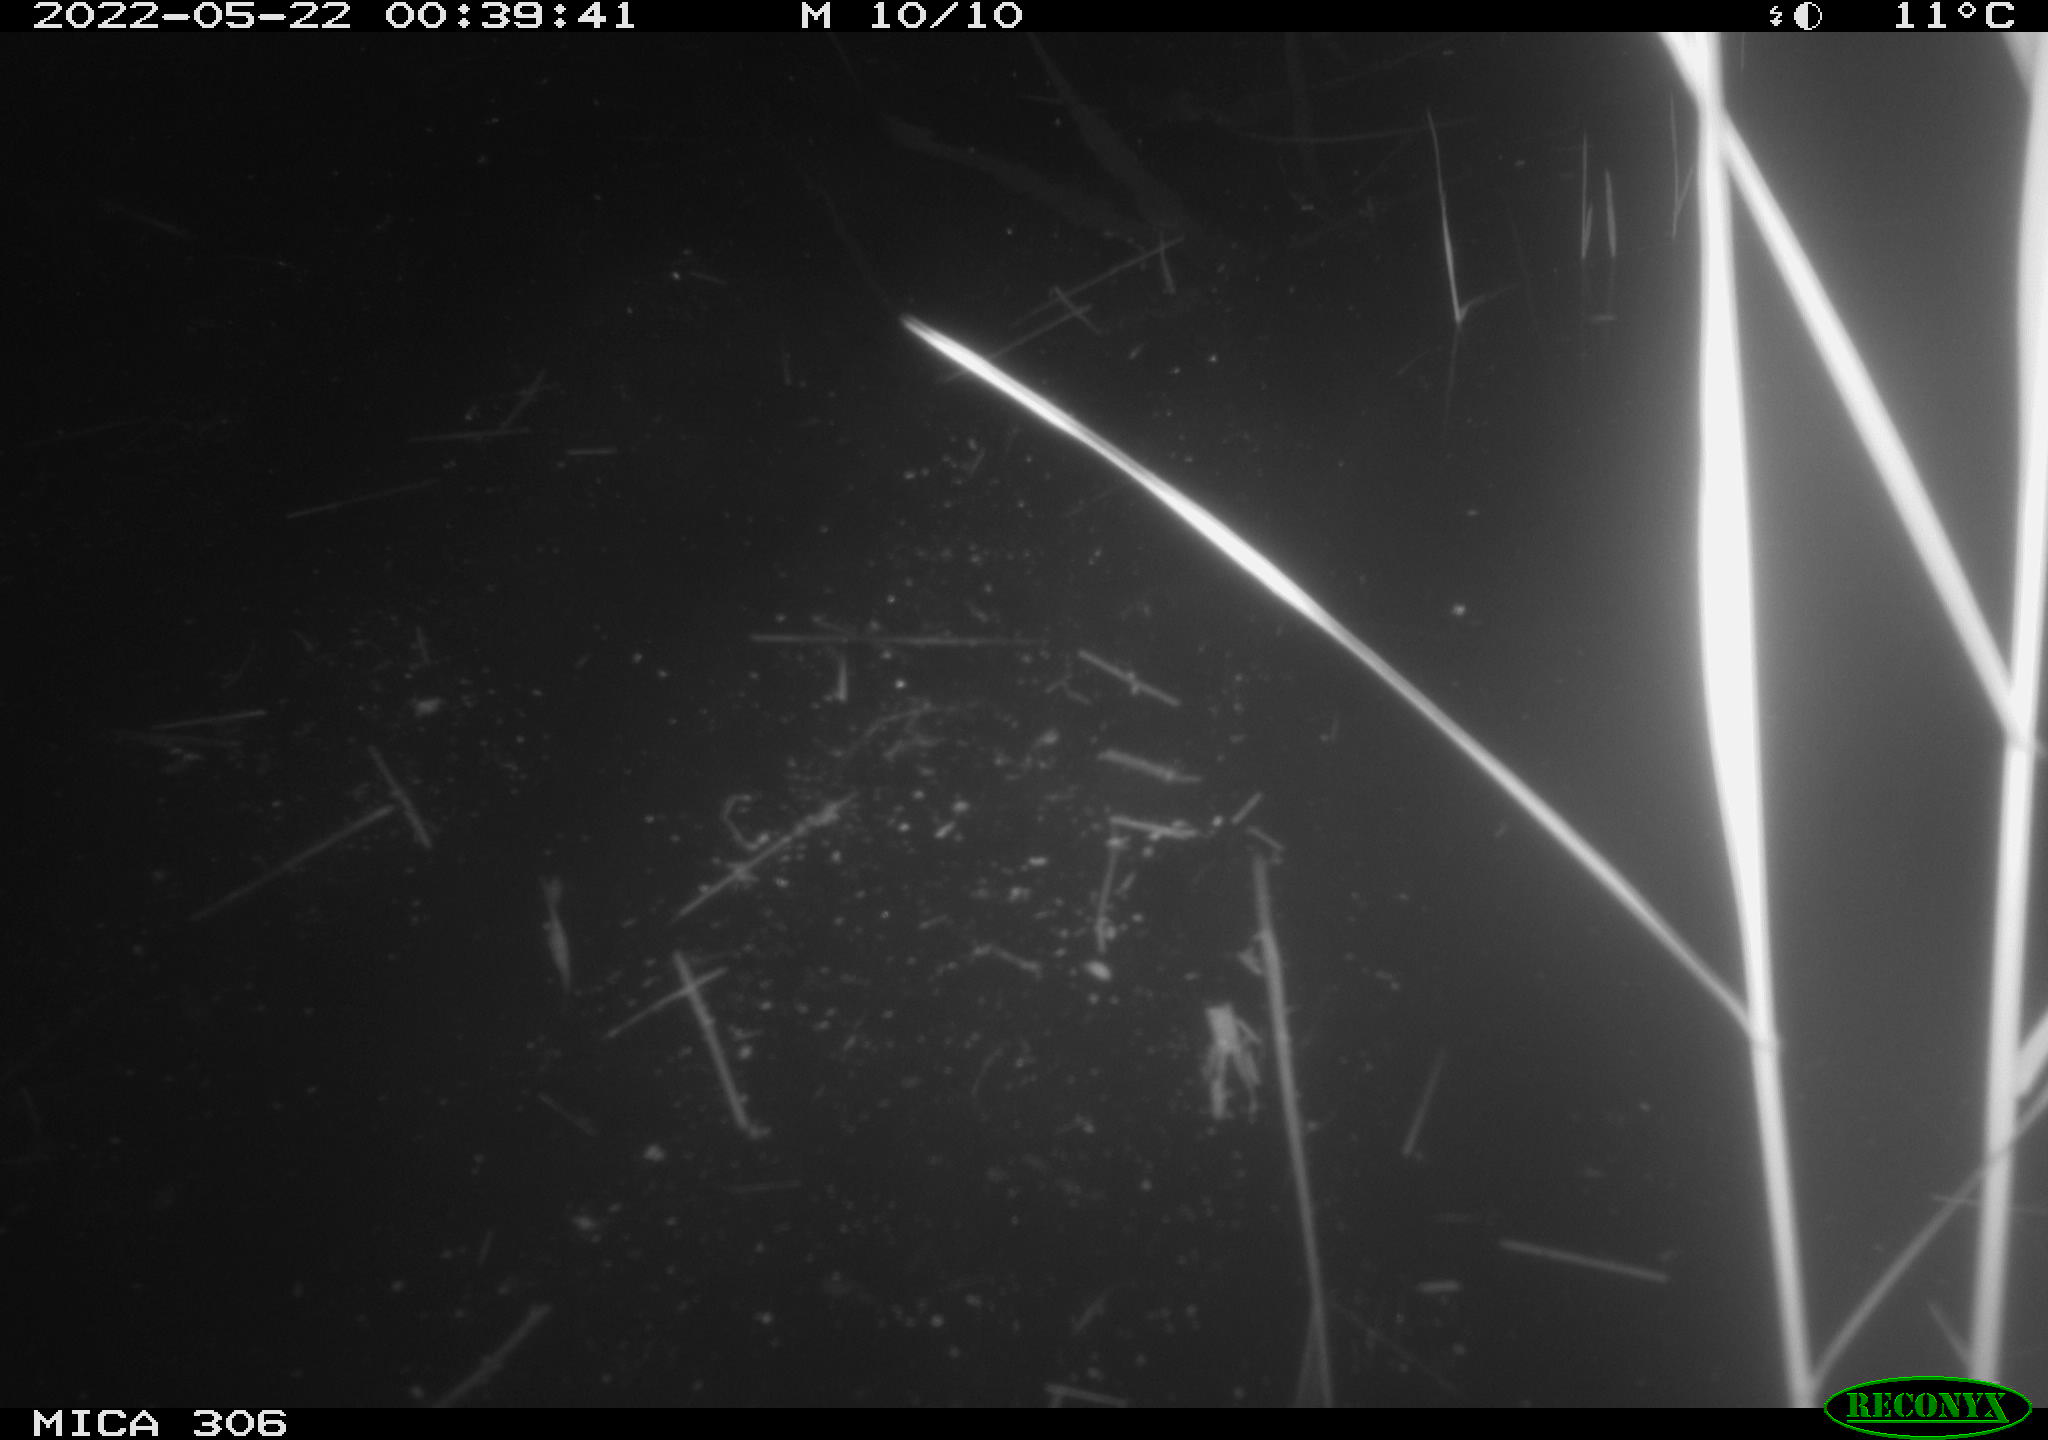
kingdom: Animalia
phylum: Chordata
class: Mammalia
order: Rodentia
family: Cricetidae
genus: Ondatra
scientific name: Ondatra zibethicus
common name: Muskrat
